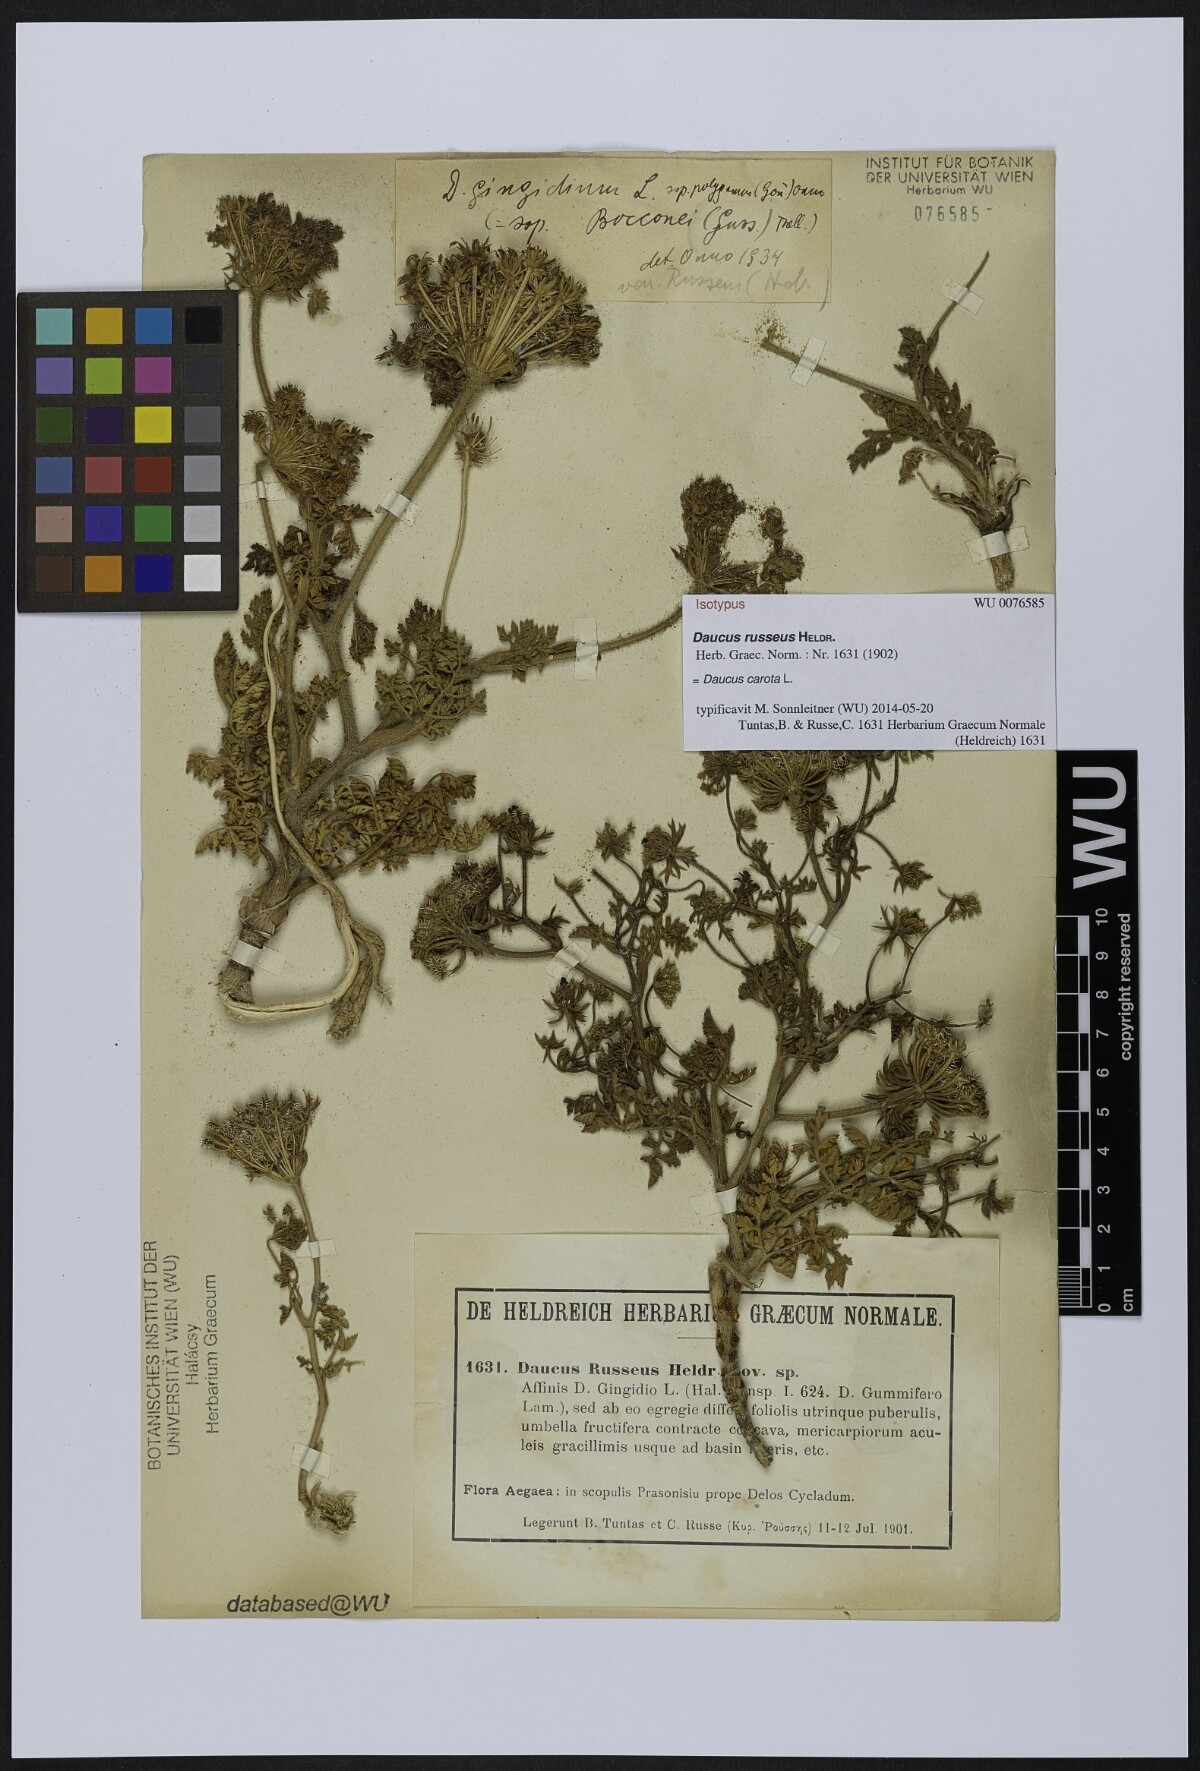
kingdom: Plantae
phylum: Tracheophyta
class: Magnoliopsida
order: Apiales
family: Apiaceae
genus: Daucus
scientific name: Daucus carota
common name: Wild carrot
